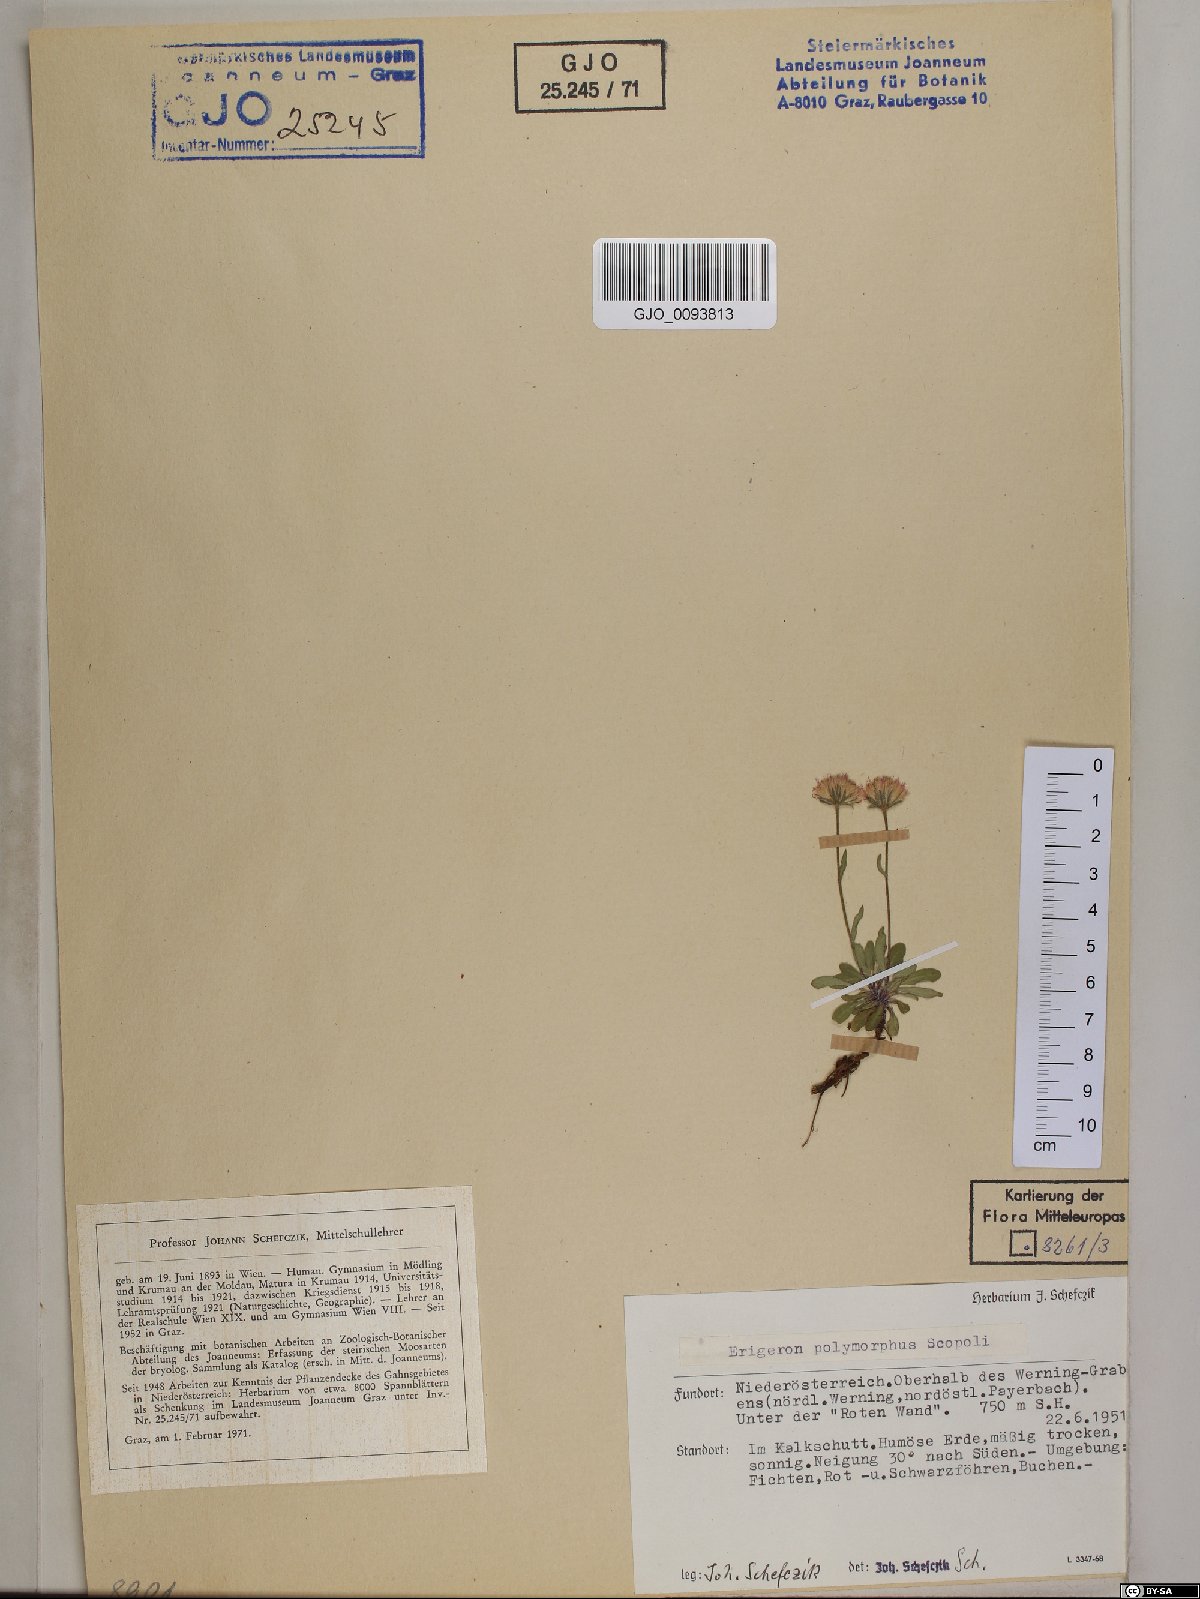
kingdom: Plantae
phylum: Tracheophyta
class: Magnoliopsida
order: Asterales
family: Asteraceae
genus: Erigeron
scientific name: Erigeron alpinus
